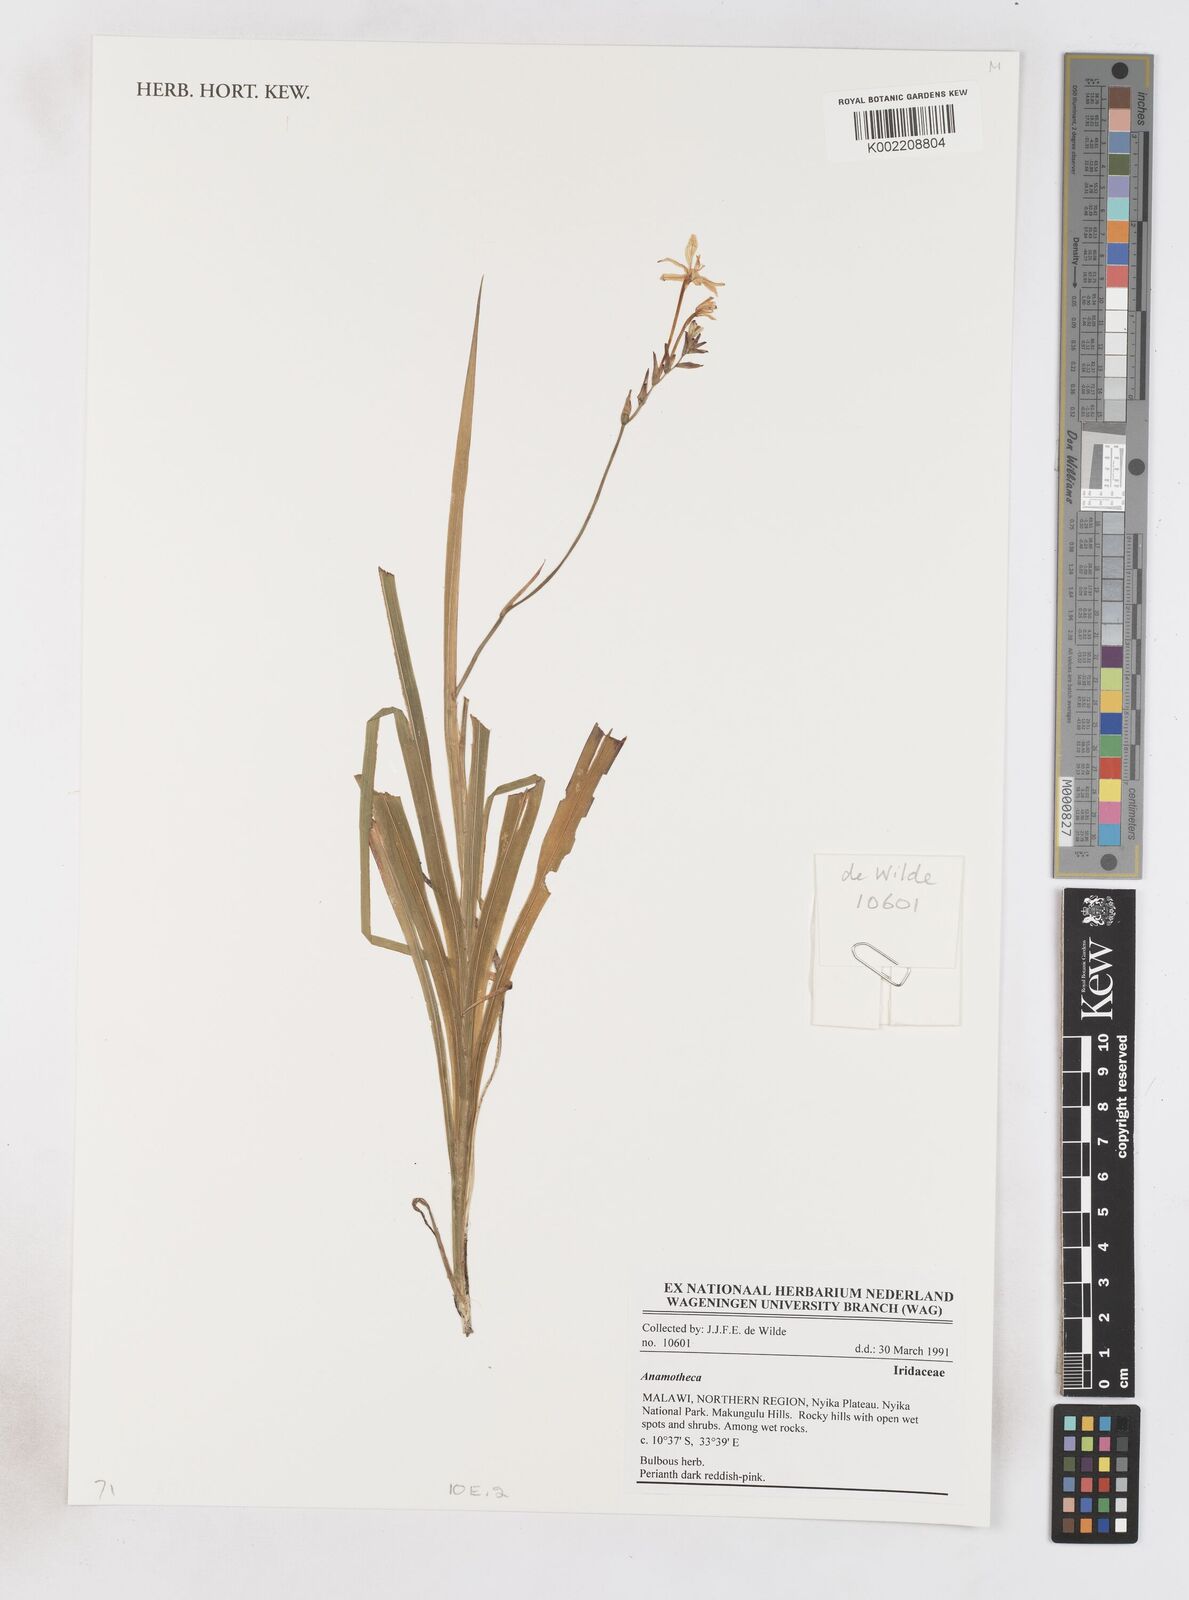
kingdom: Plantae
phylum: Tracheophyta
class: Liliopsida
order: Asparagales
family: Iridaceae
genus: Freesia
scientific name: Freesia
